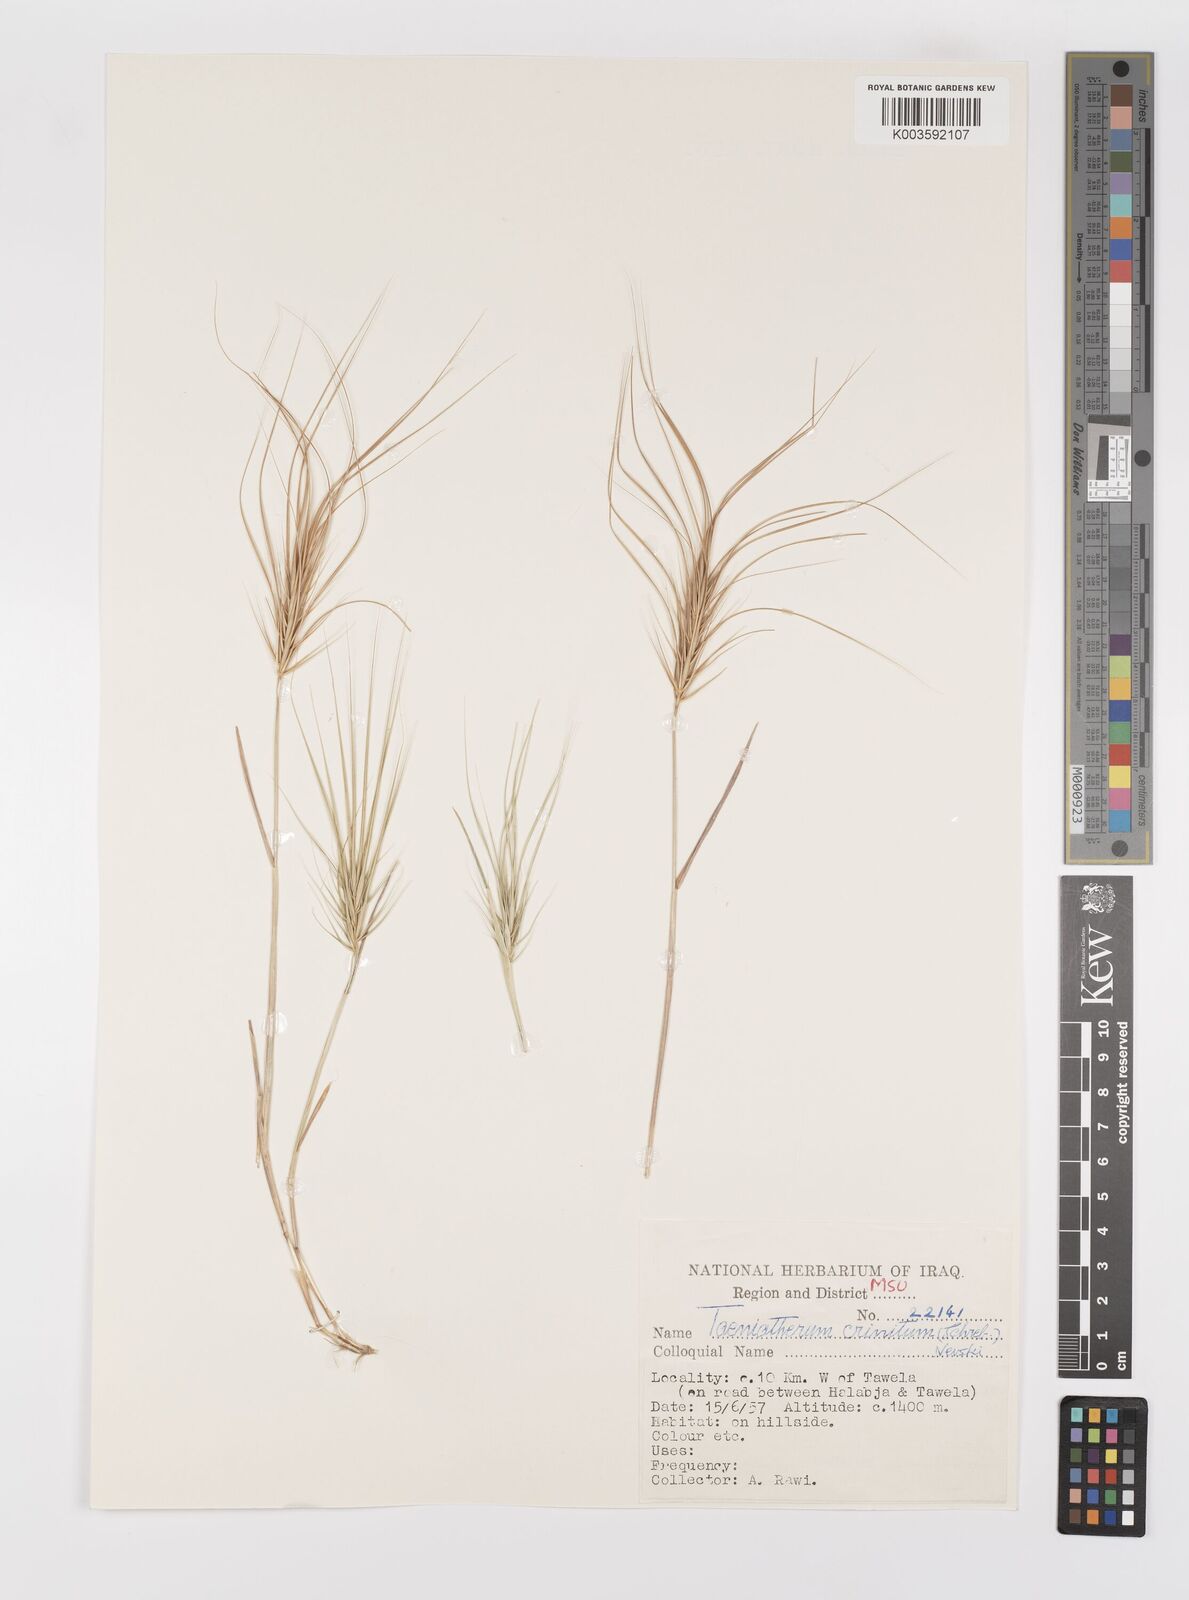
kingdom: Plantae
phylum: Tracheophyta
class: Liliopsida
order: Poales
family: Poaceae
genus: Taeniatherum
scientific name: Taeniatherum caput-medusae
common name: Medusahead
